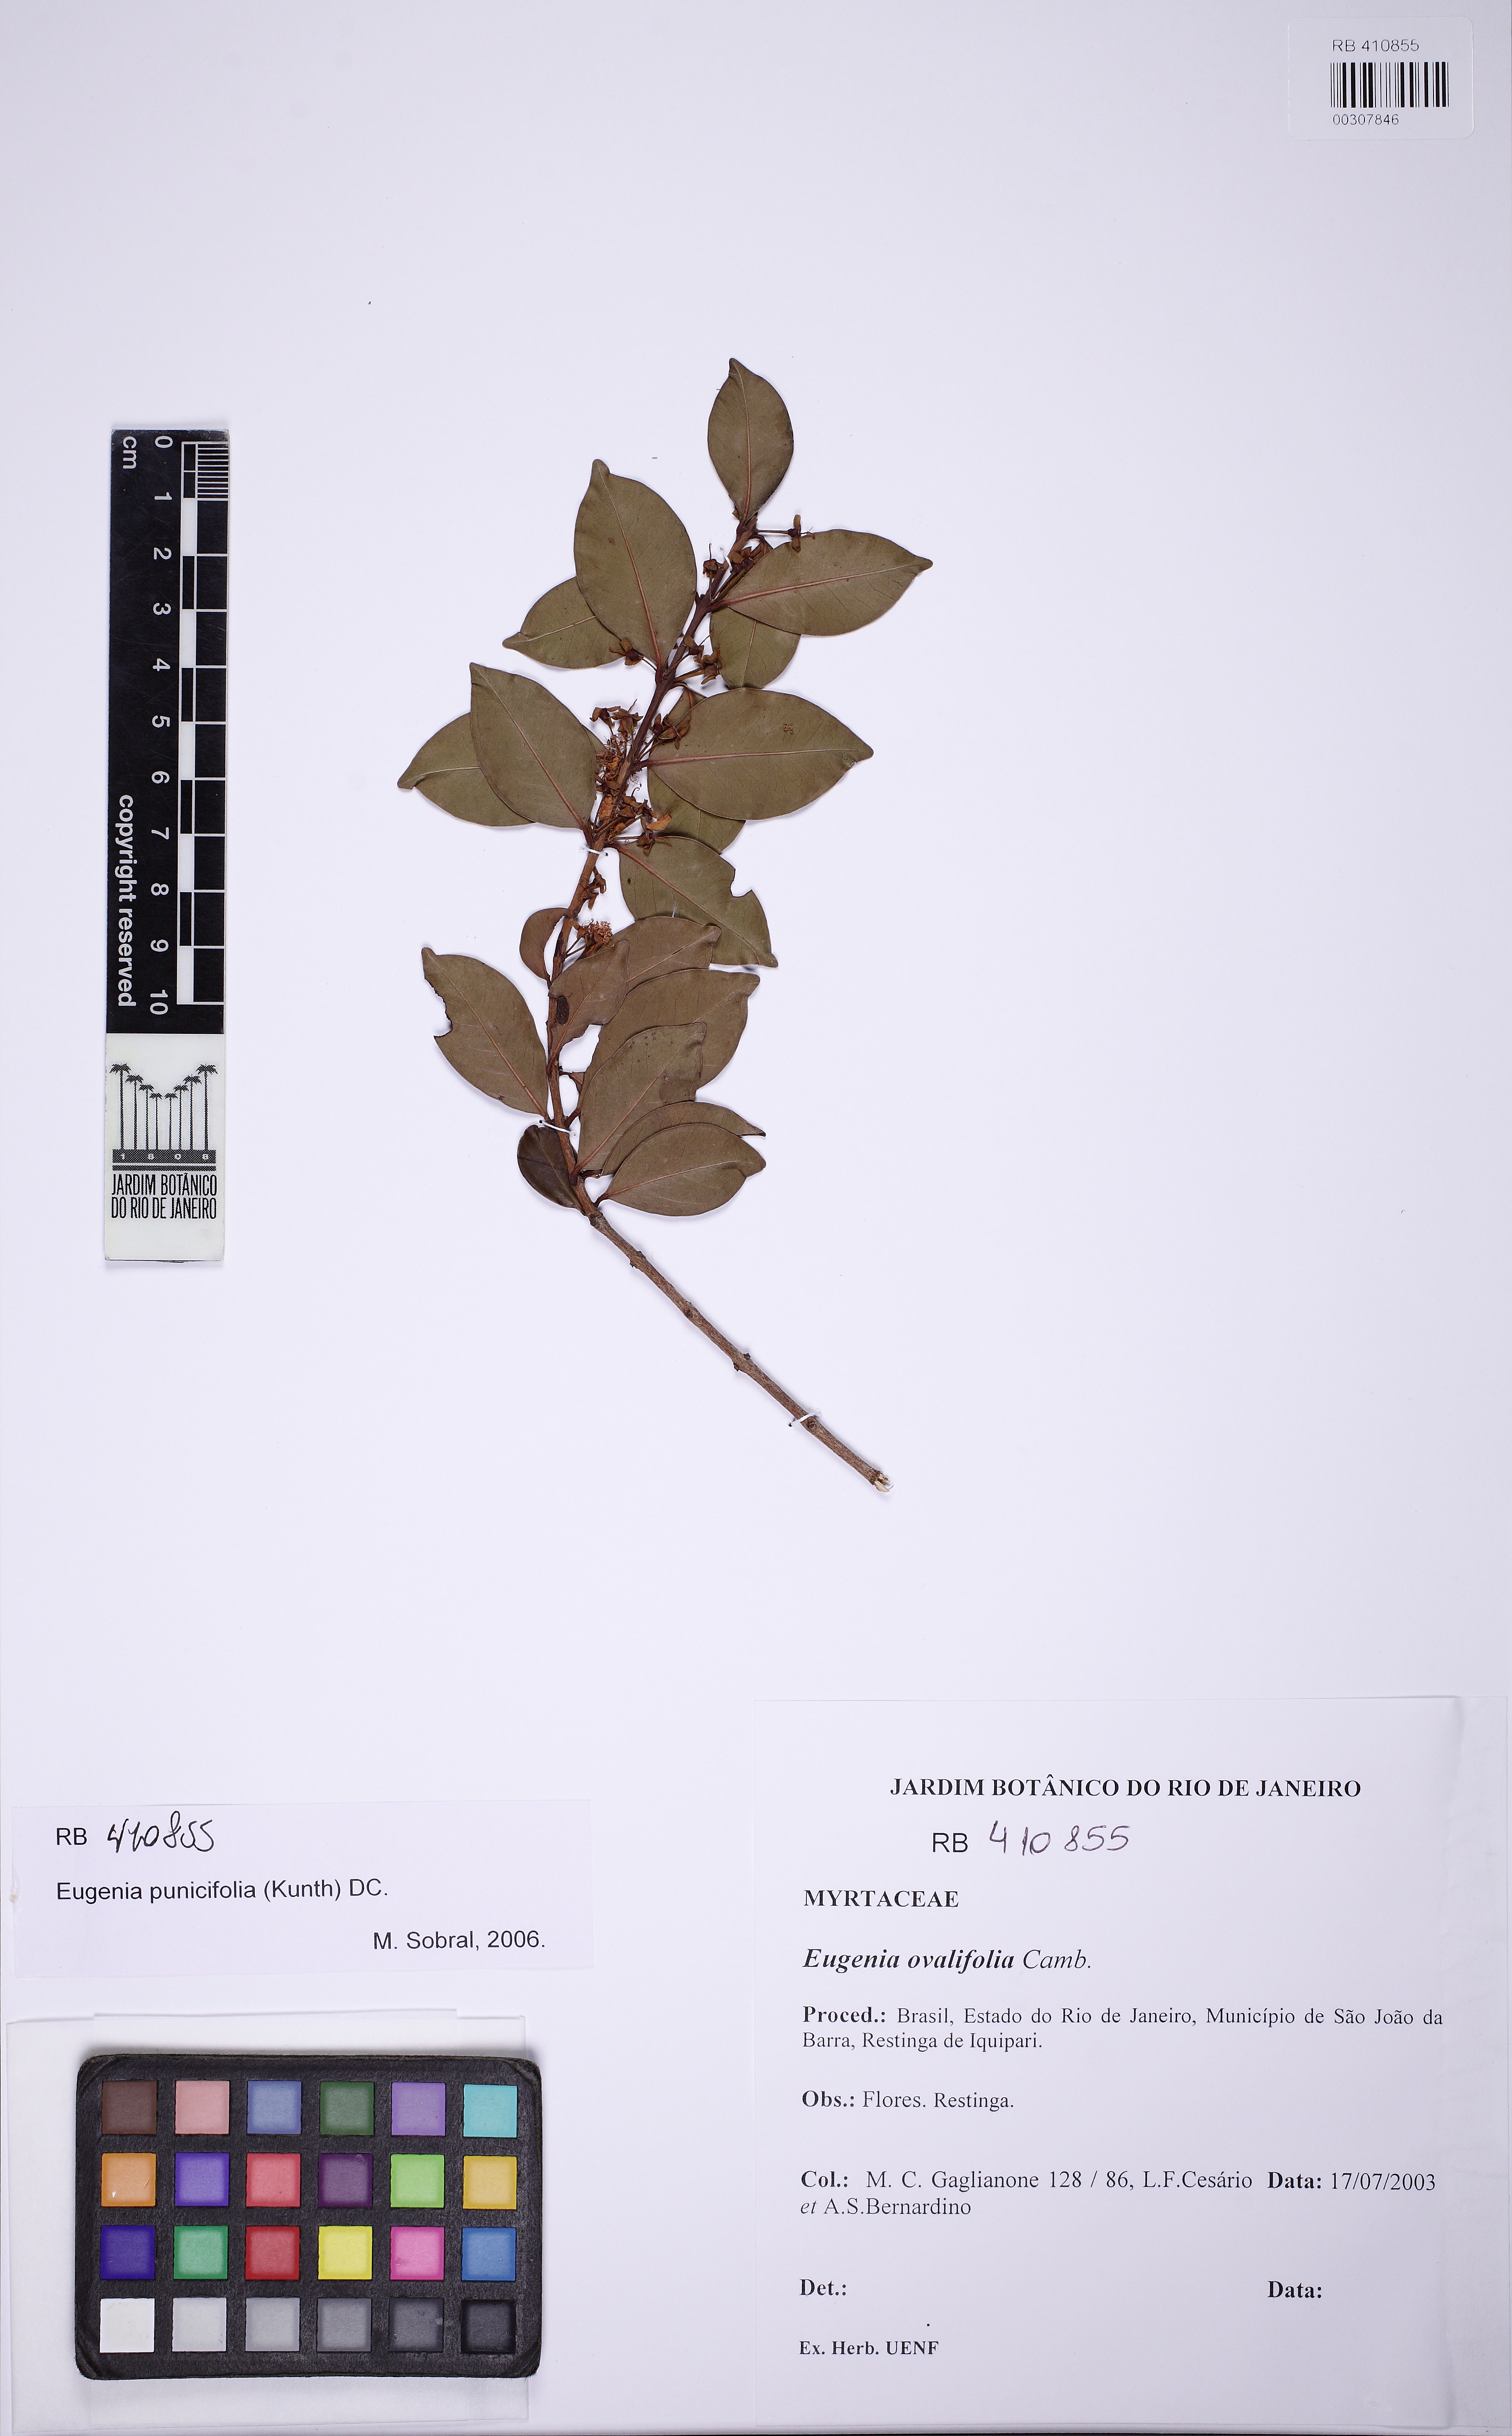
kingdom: Plantae
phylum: Tracheophyta
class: Magnoliopsida
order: Myrtales
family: Myrtaceae
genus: Eugenia
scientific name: Eugenia punicifolia
